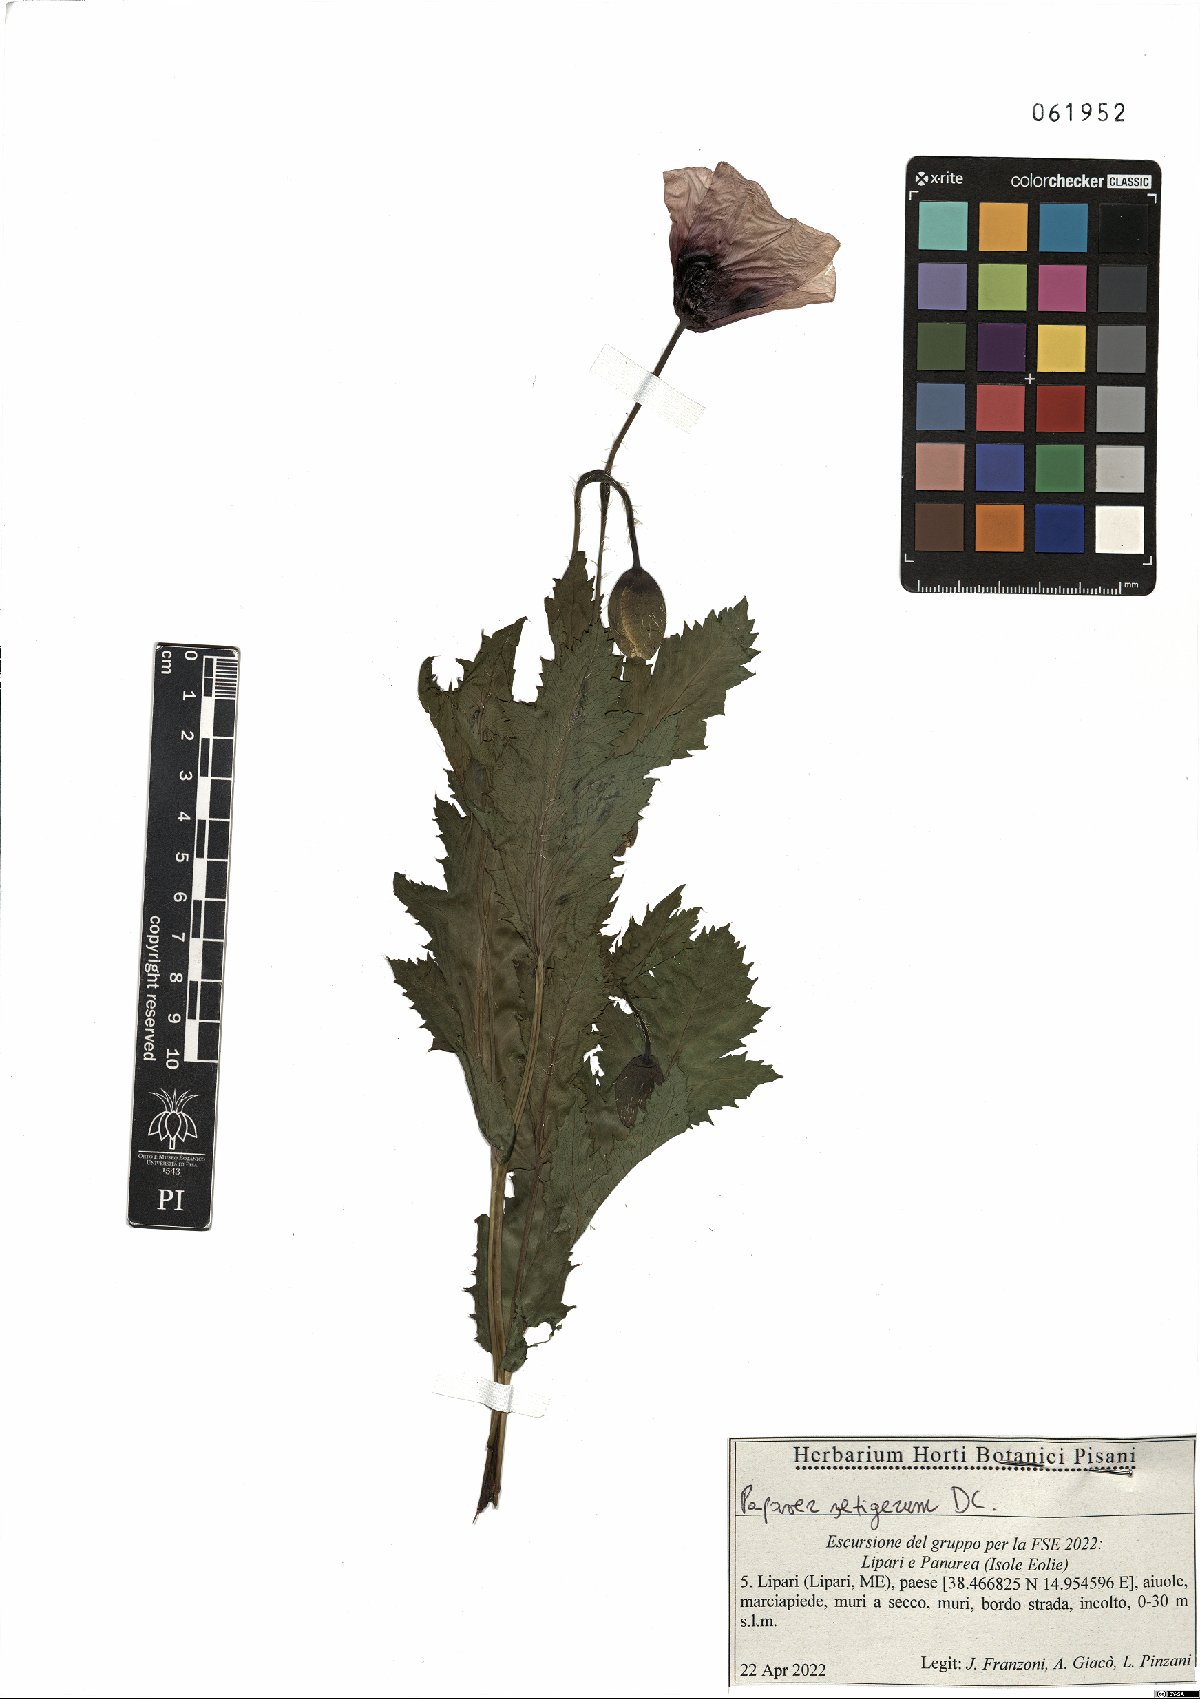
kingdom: Plantae
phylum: Tracheophyta
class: Magnoliopsida
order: Ranunculales
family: Papaveraceae
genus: Papaver
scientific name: Papaver setigerum
